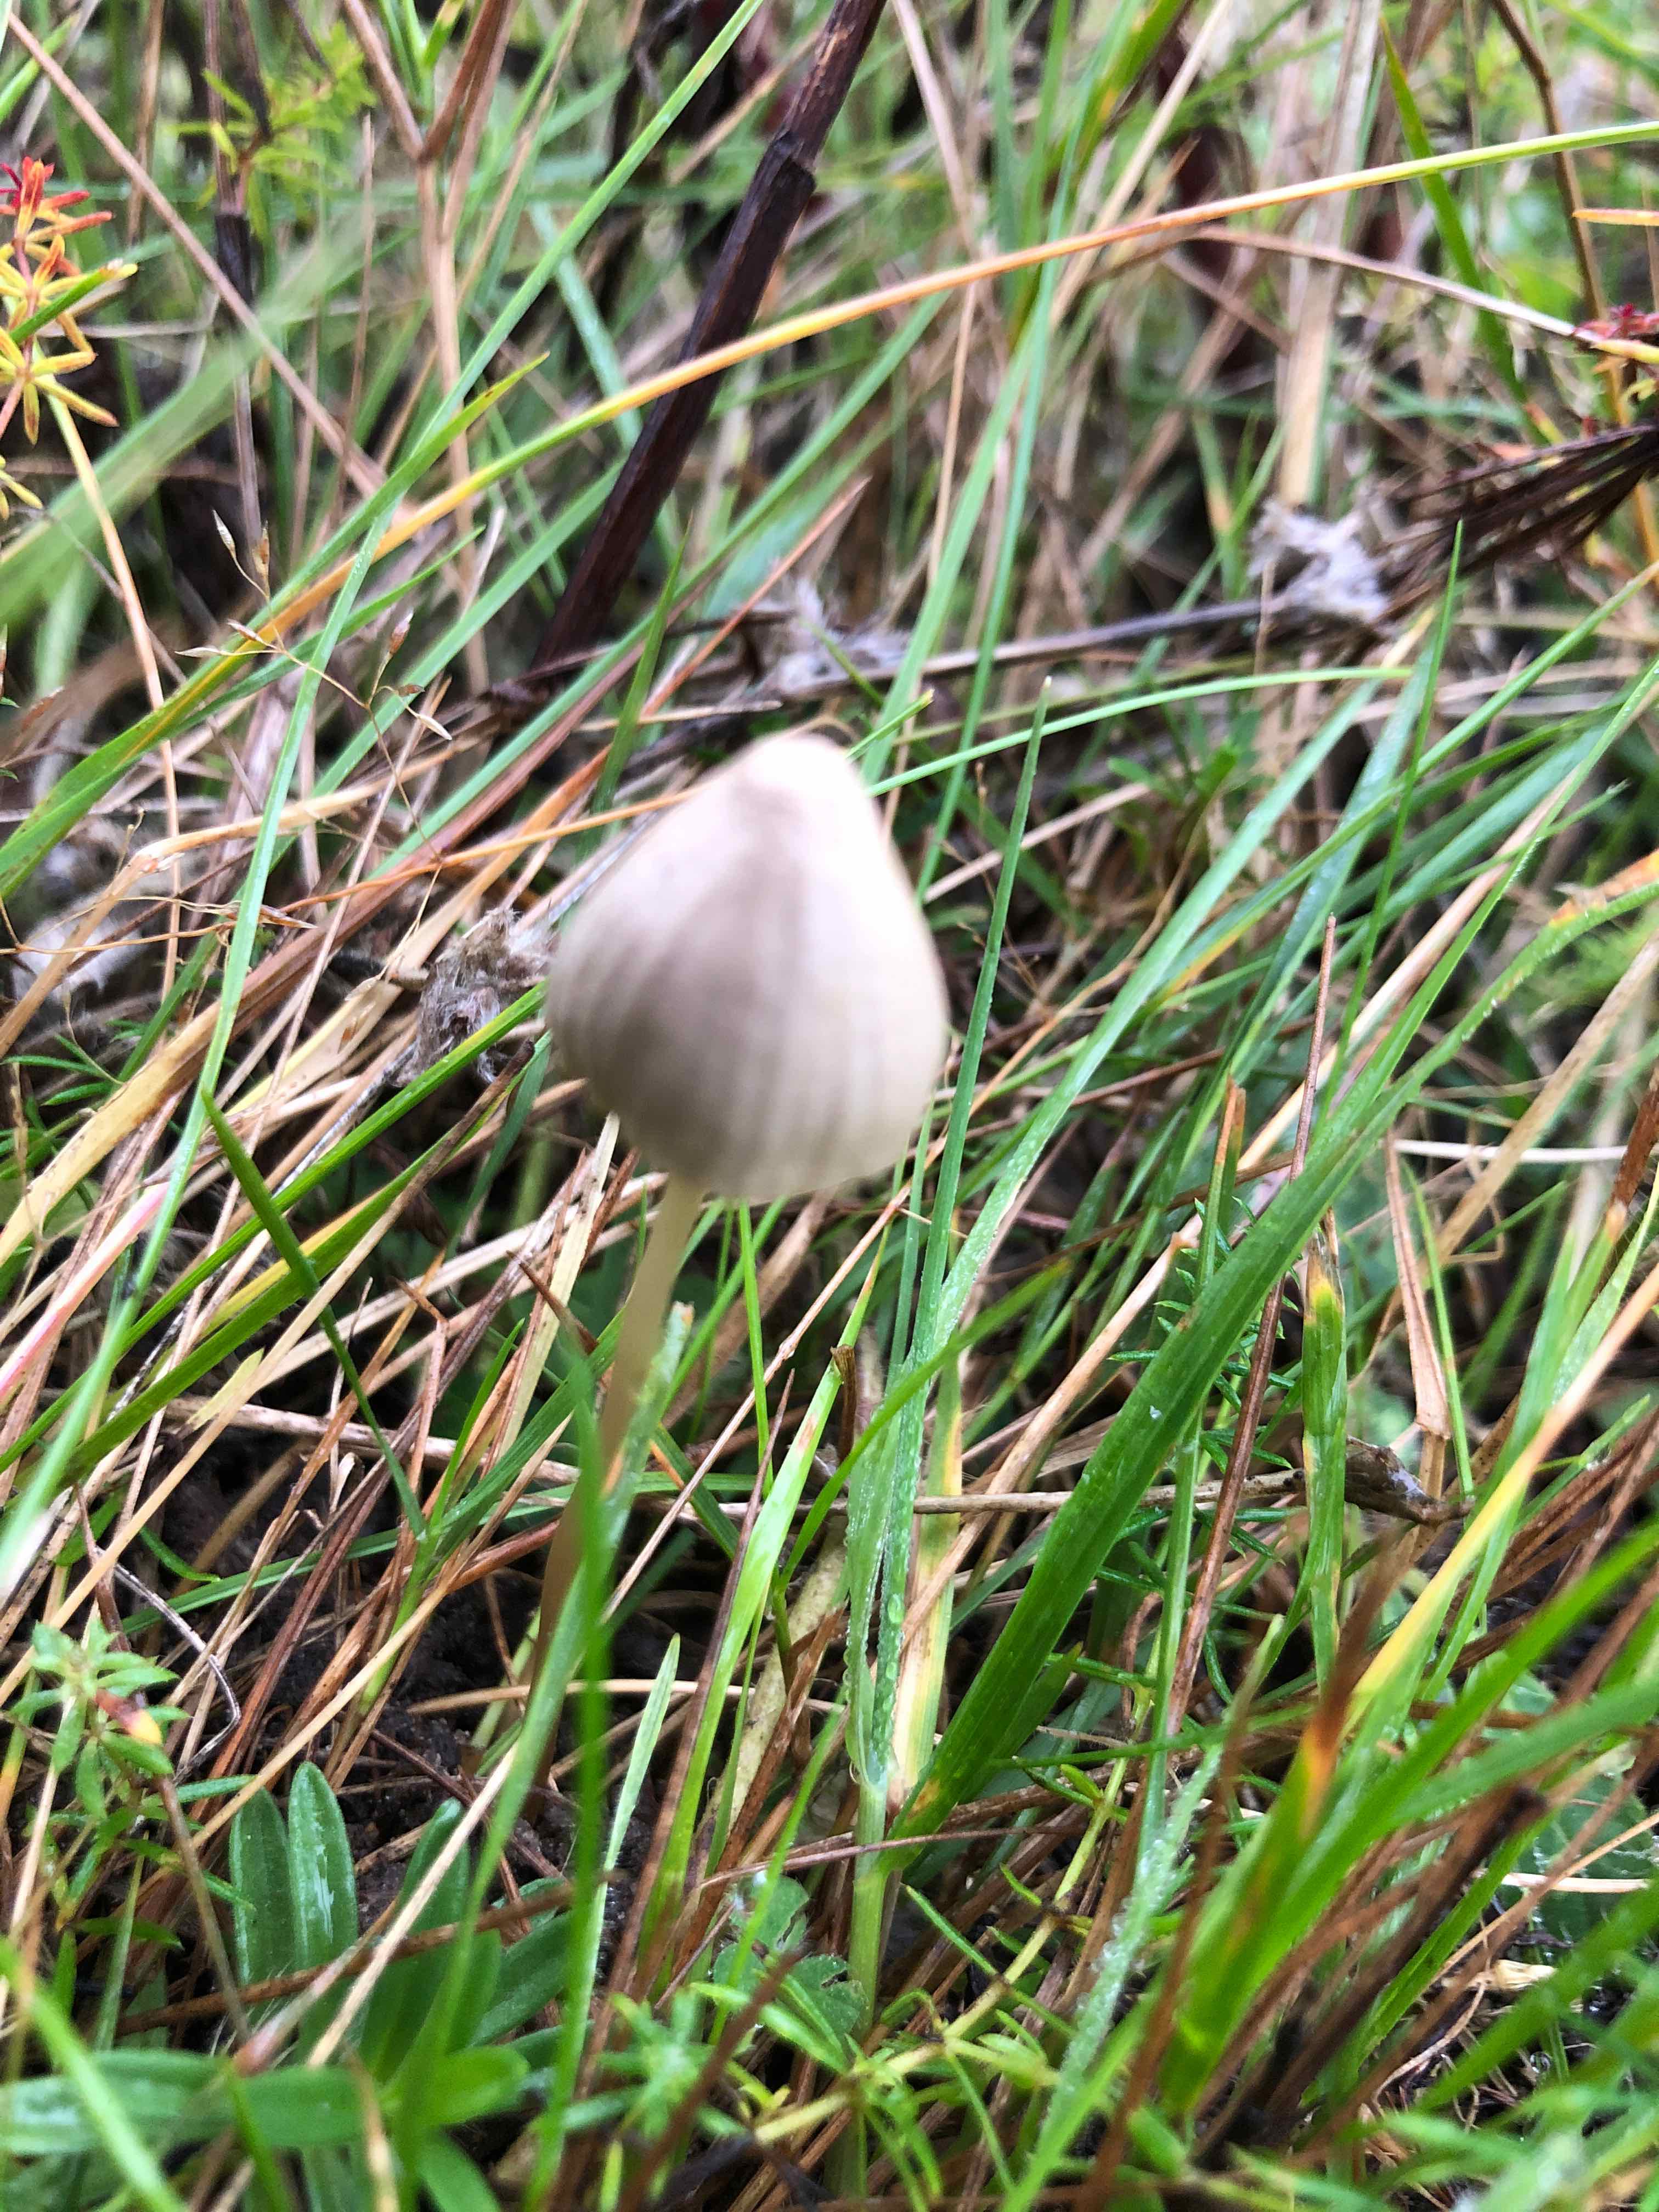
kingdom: Fungi
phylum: Basidiomycota
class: Agaricomycetes
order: Agaricales
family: Mycenaceae
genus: Mycena
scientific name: Mycena
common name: huesvamp
